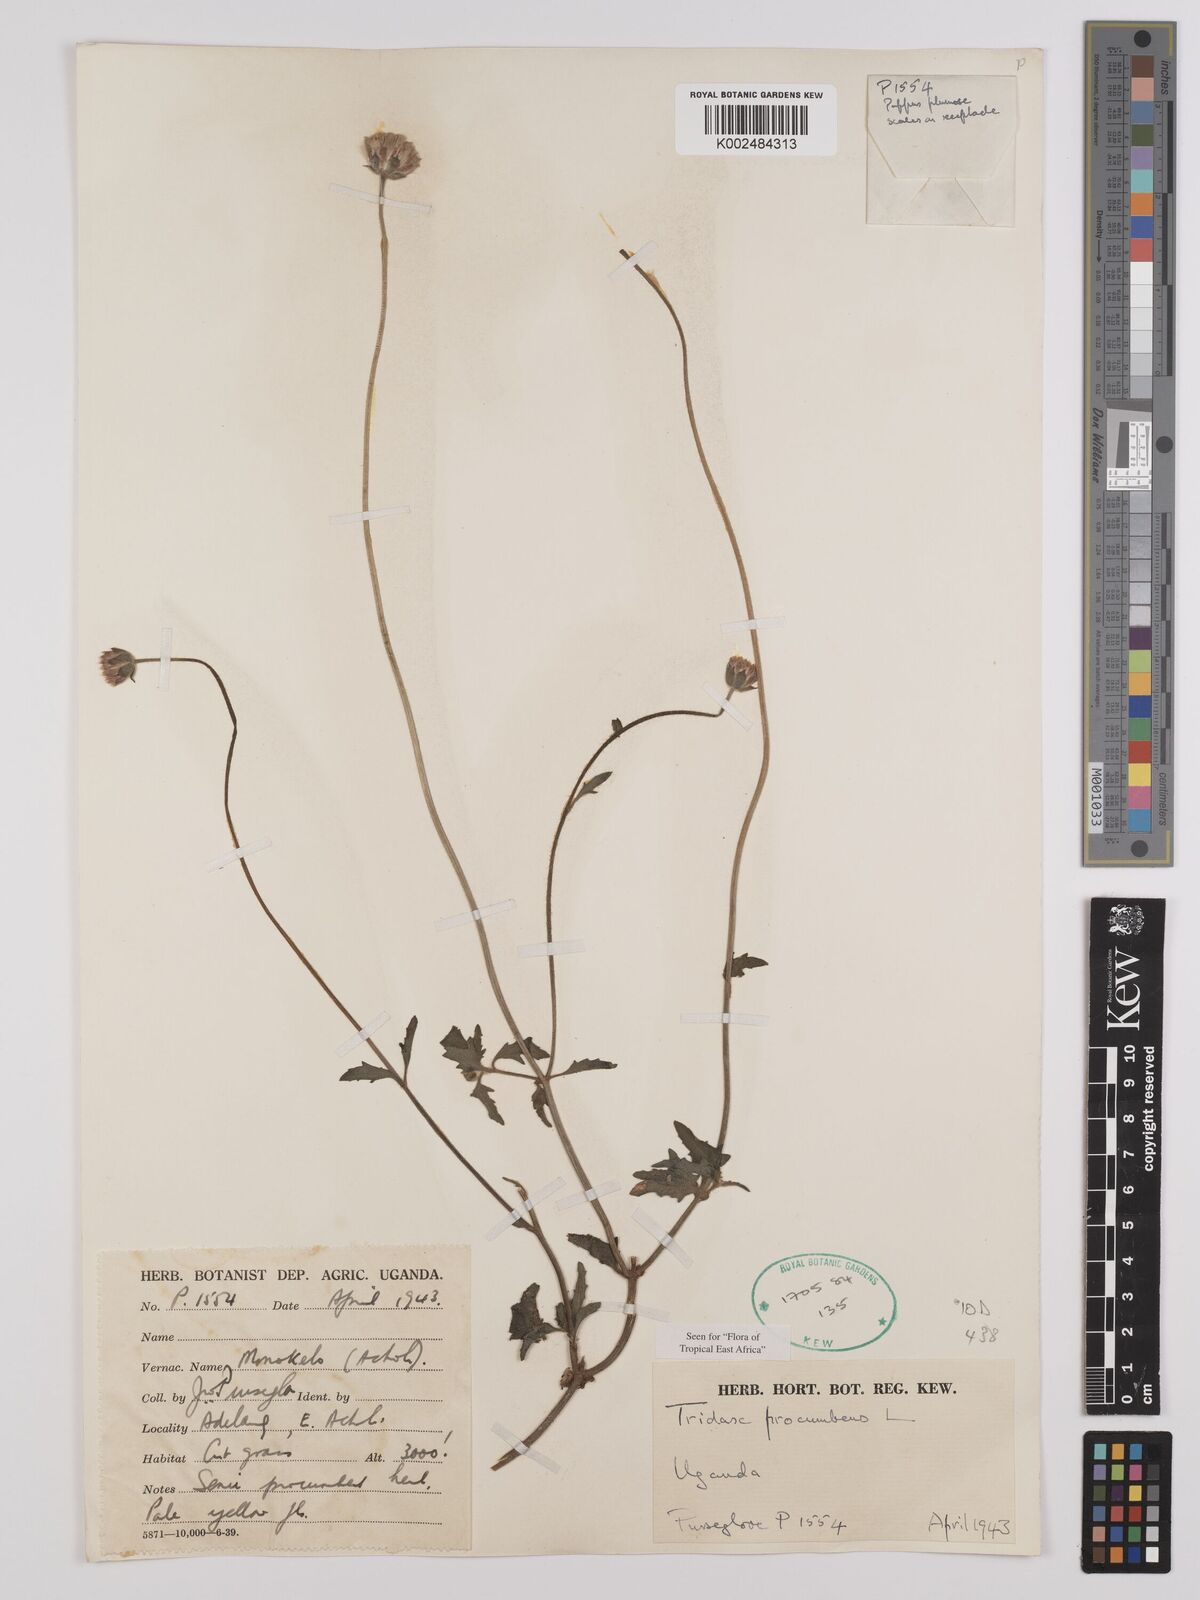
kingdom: Plantae
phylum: Tracheophyta
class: Magnoliopsida
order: Asterales
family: Asteraceae
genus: Tridax
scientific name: Tridax procumbens
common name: Coatbuttons
